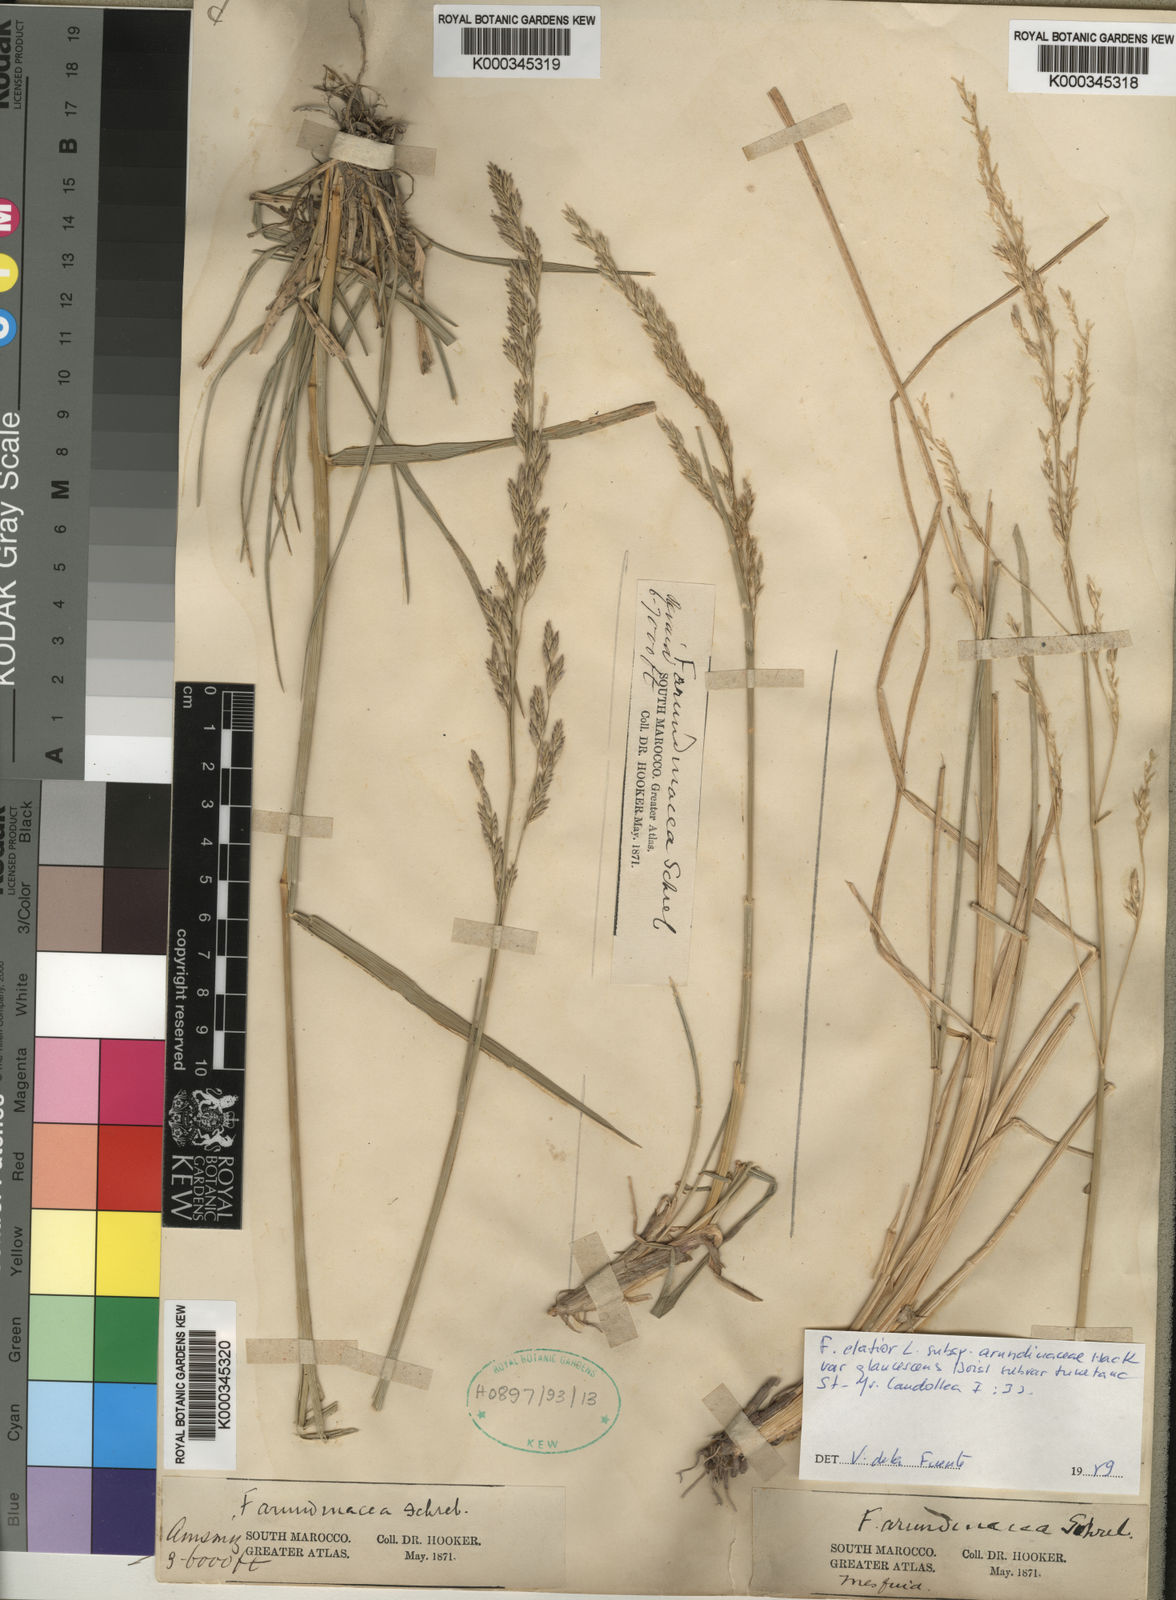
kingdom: Plantae
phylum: Tracheophyta
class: Liliopsida
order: Poales
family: Poaceae
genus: Lolium
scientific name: Lolium mediterraneum
